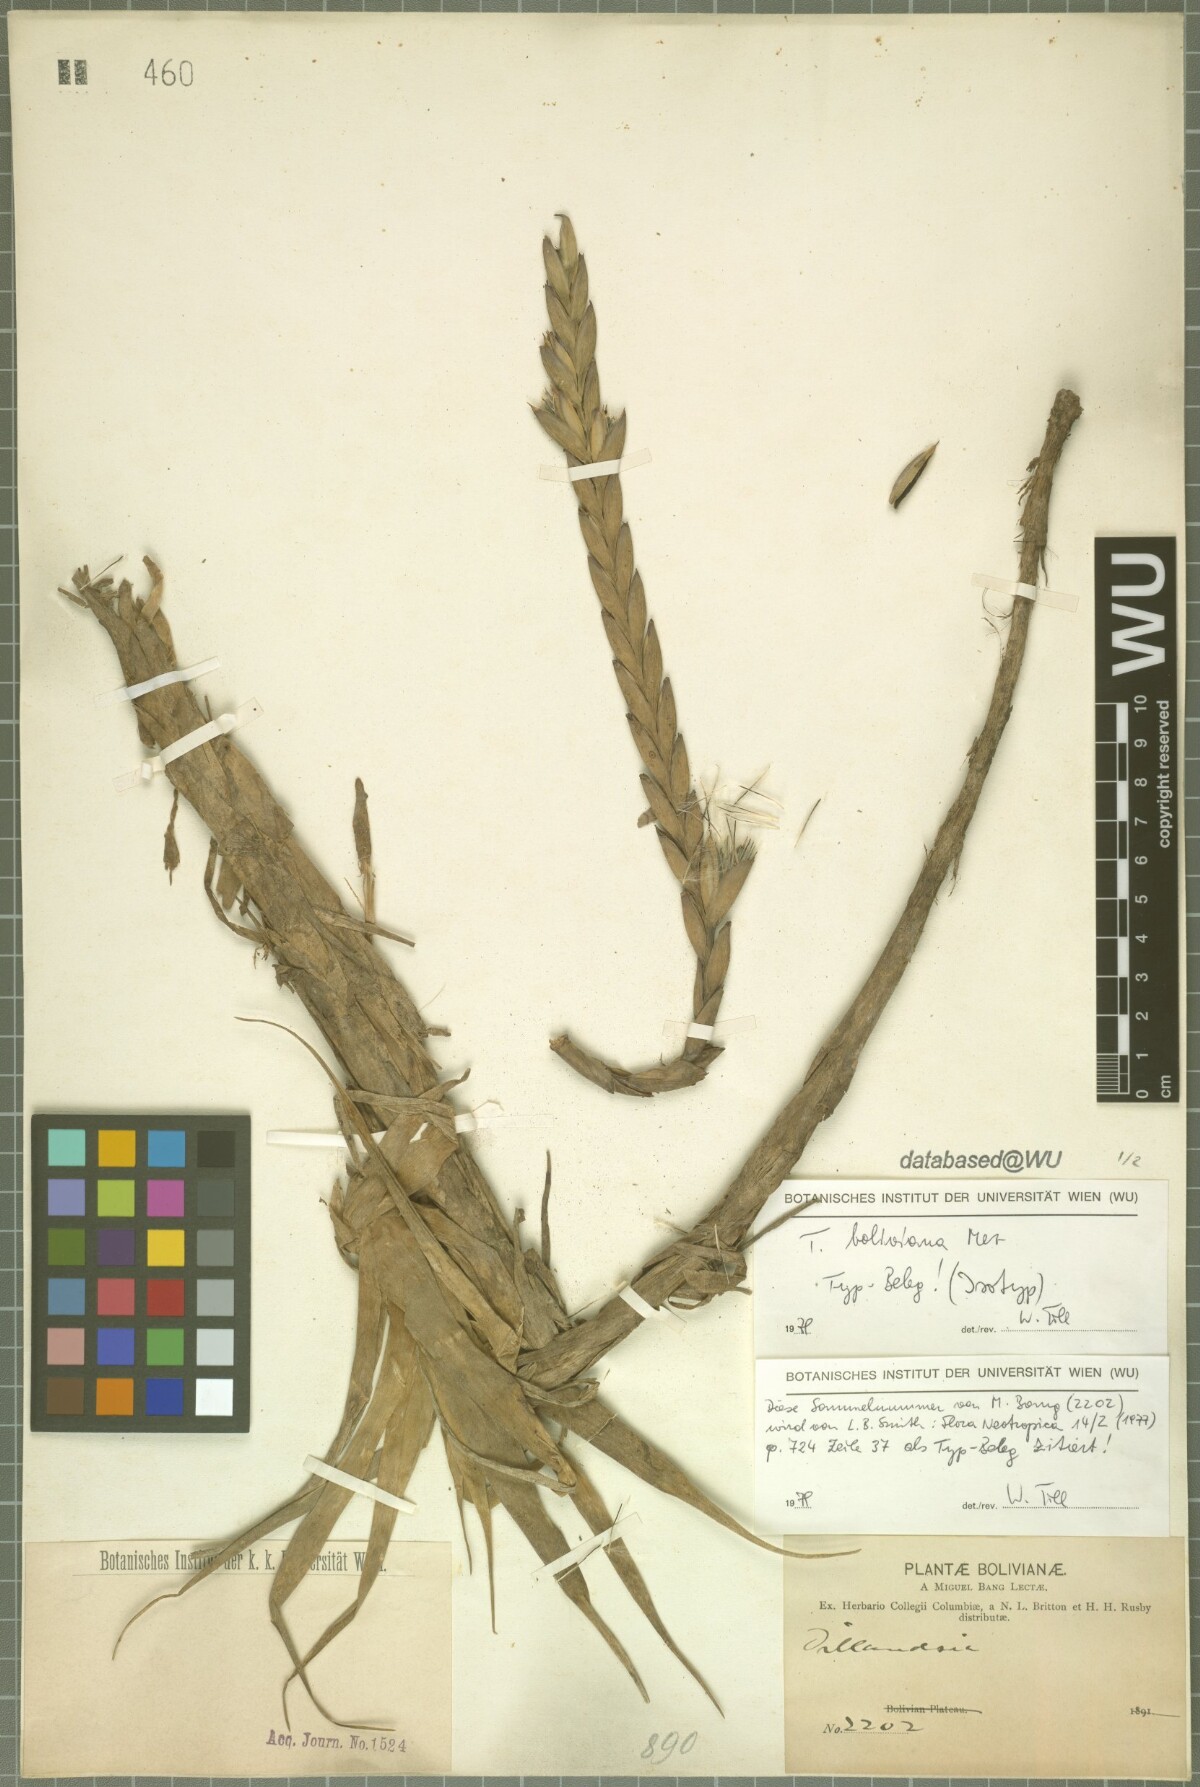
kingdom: Plantae
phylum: Tracheophyta
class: Liliopsida
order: Poales
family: Bromeliaceae
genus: Tillandsia
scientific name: Tillandsia boliviana
